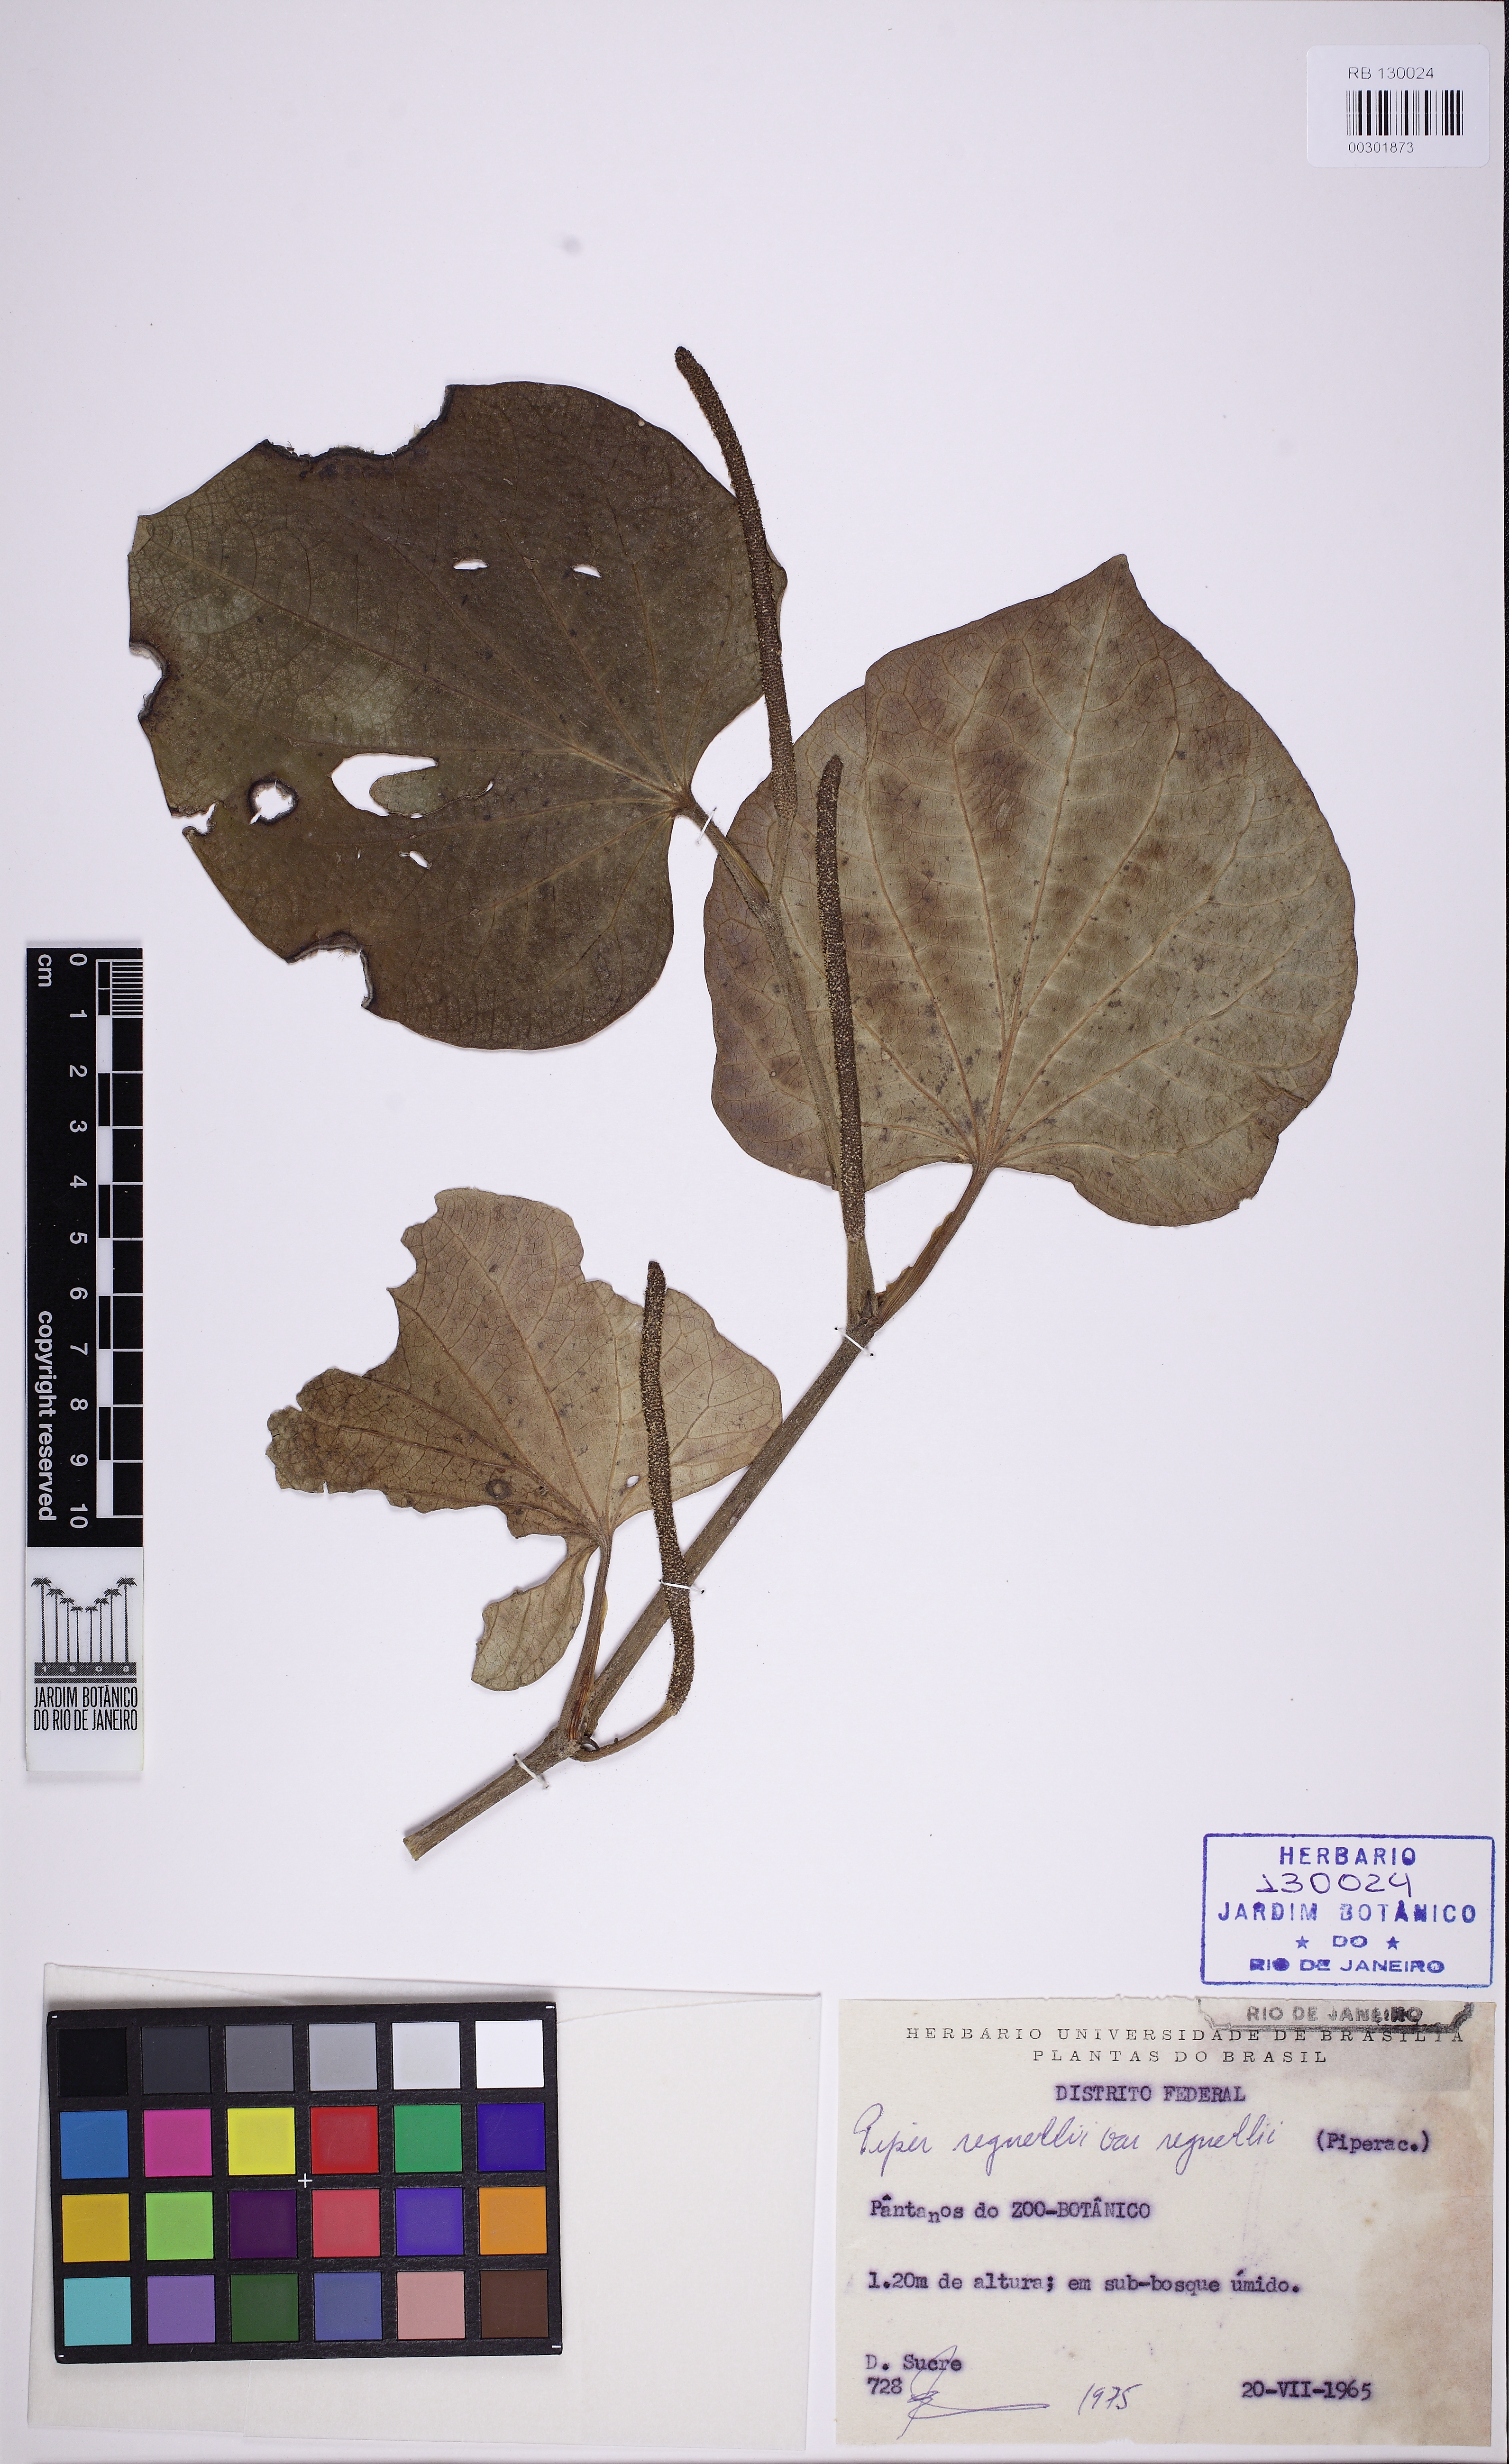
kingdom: Plantae
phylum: Tracheophyta
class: Magnoliopsida
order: Piperales
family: Piperaceae
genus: Piper
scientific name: Piper regnellii
